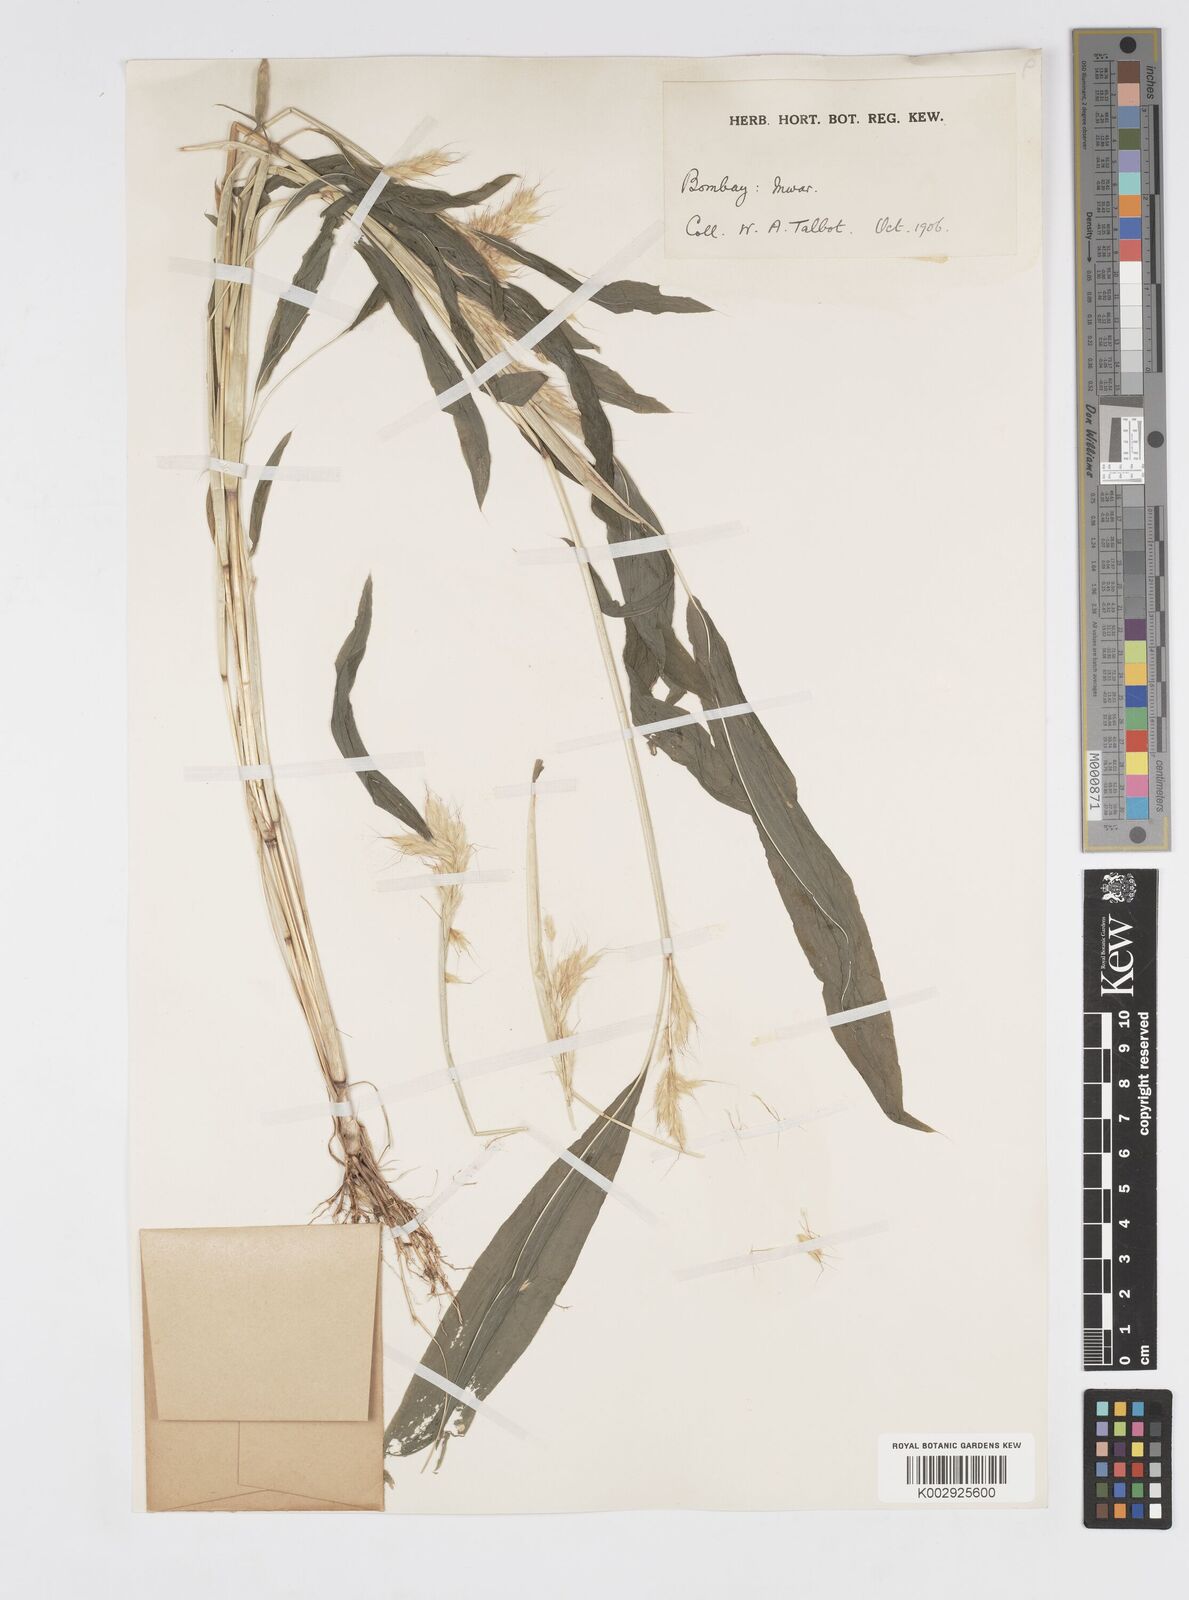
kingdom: Plantae
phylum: Tracheophyta
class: Liliopsida
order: Poales
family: Poaceae
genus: Spodiopogon
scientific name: Spodiopogon rhizophorus
